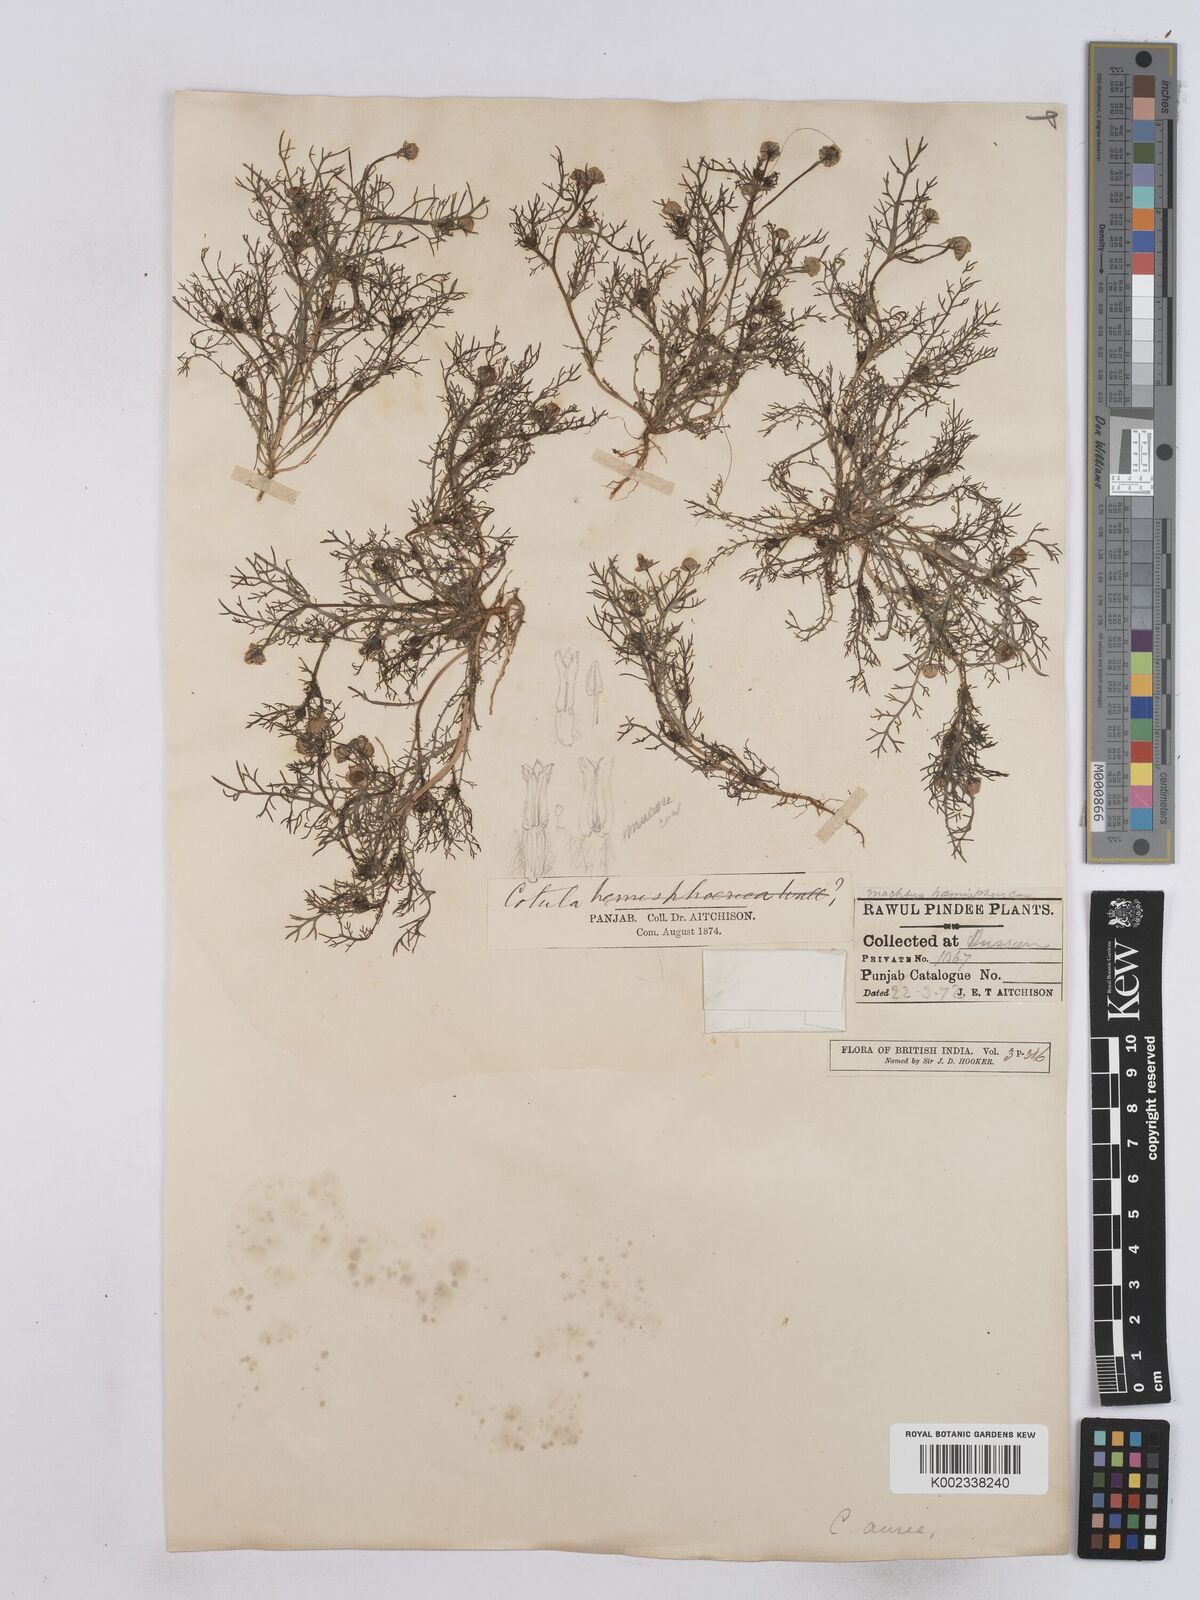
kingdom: Plantae
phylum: Tracheophyta
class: Magnoliopsida
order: Asterales
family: Asteraceae
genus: Matricaria
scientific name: Matricaria aurea
